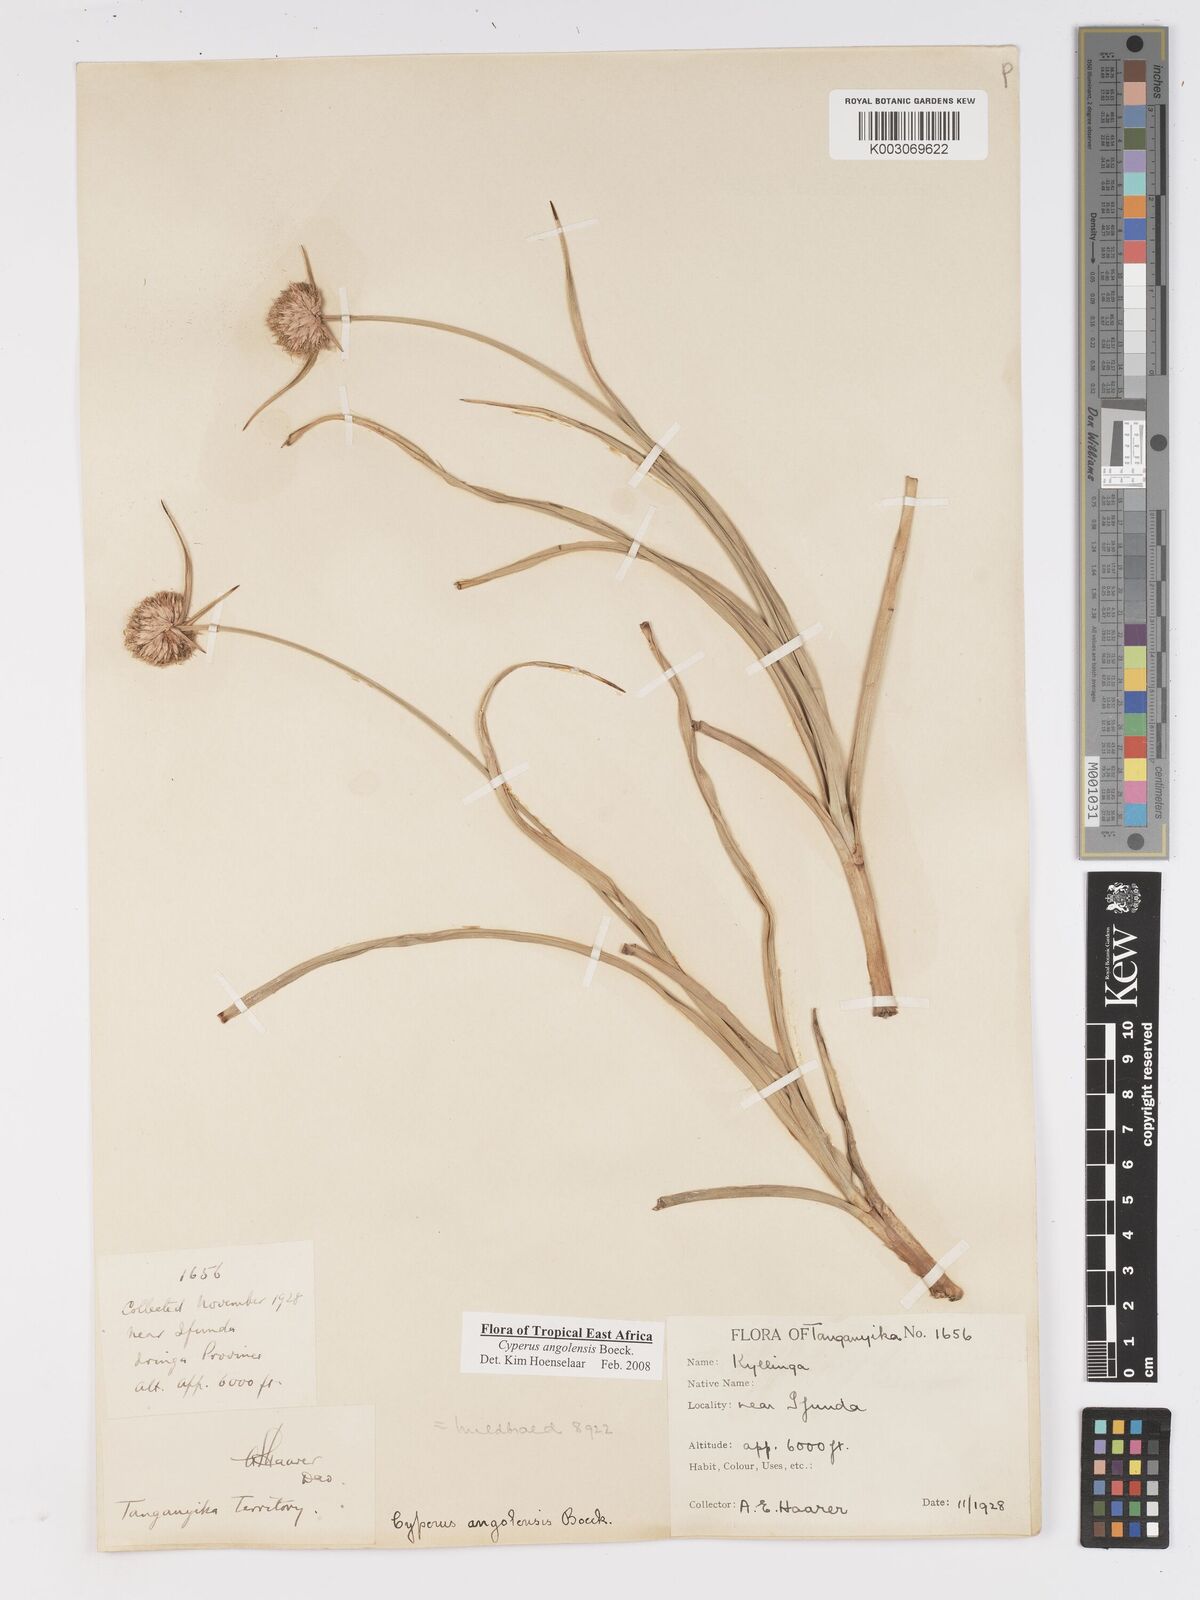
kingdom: Plantae
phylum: Tracheophyta
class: Liliopsida
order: Poales
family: Cyperaceae
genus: Cyperus
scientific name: Cyperus angolensis
